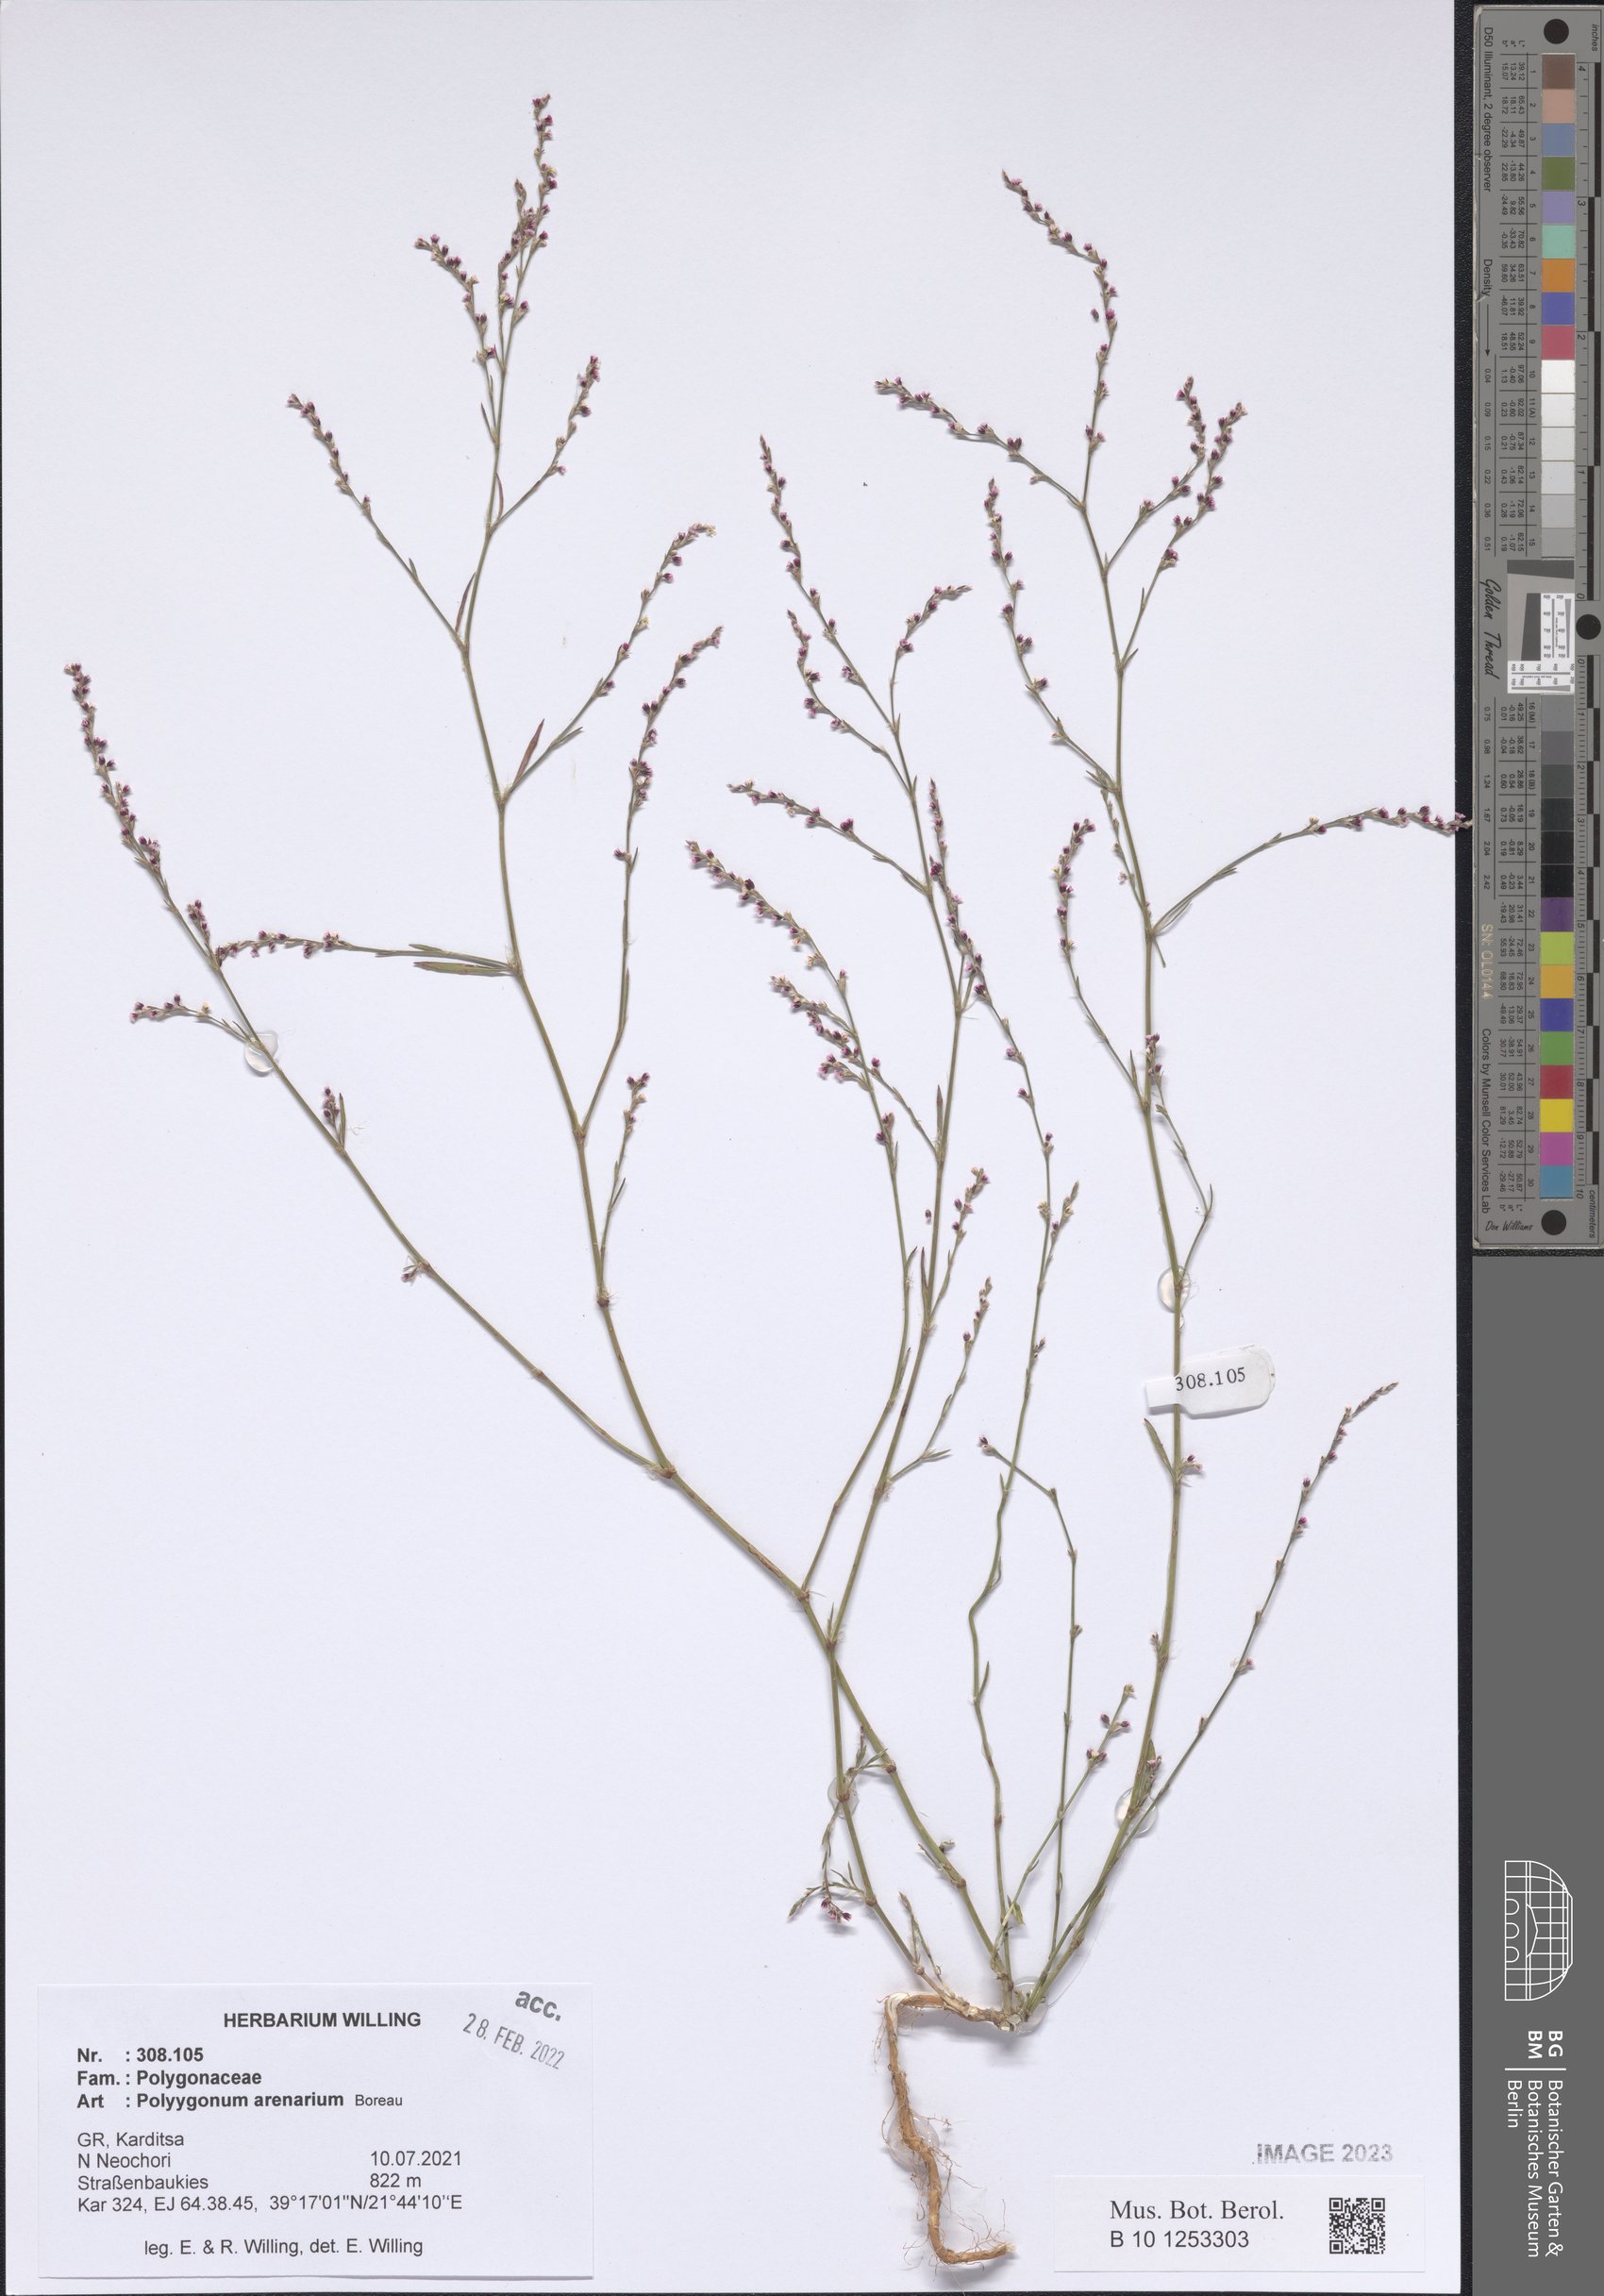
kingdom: Plantae
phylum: Tracheophyta
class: Magnoliopsida
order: Caryophyllales
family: Polygonaceae
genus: Polygonum
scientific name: Polygonum arenarium
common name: Lesser red-knotgrass
